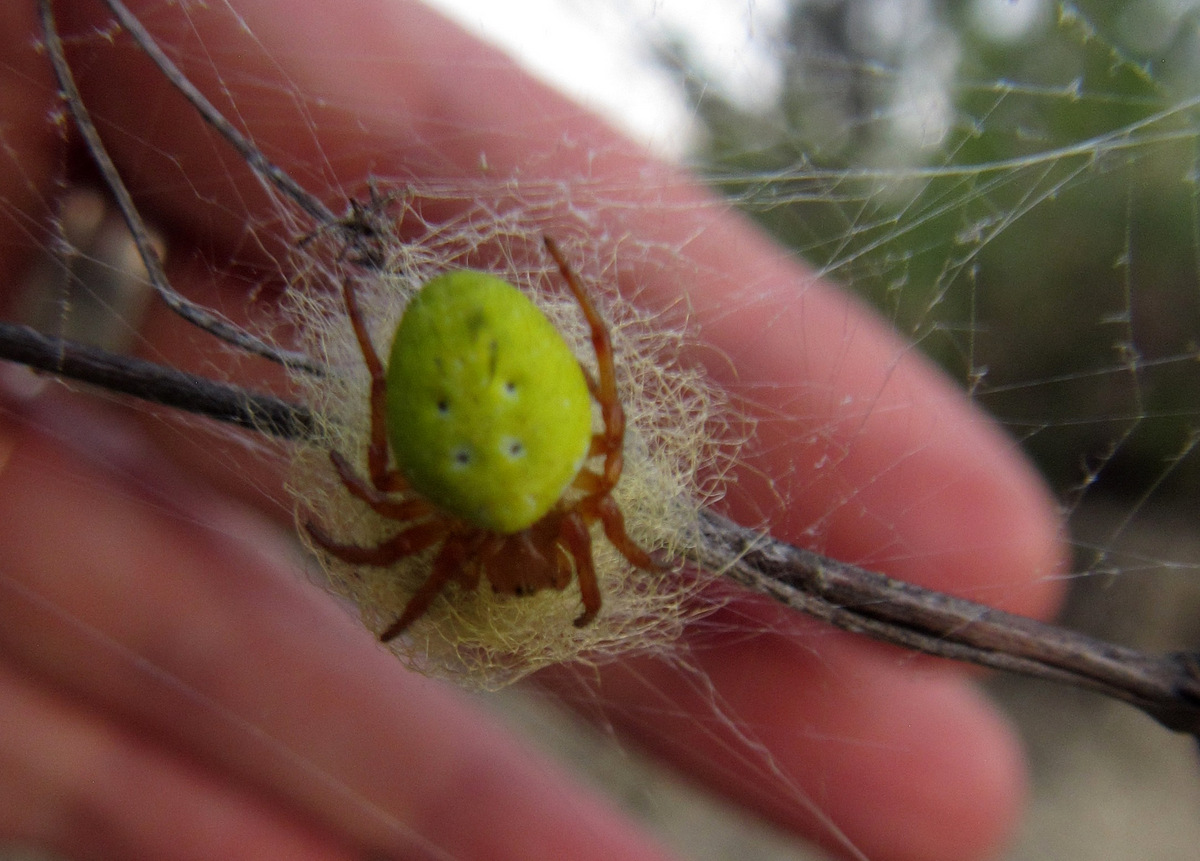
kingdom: Animalia
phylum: Arthropoda
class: Arachnida
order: Araneae
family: Araneidae
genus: Araniella
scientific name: Araniella cucurbitina
